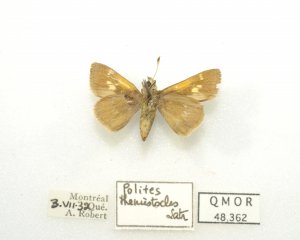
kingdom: Animalia
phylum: Arthropoda
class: Insecta
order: Lepidoptera
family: Hesperiidae
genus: Polites
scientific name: Polites themistocles
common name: Tawny-edged Skipper
